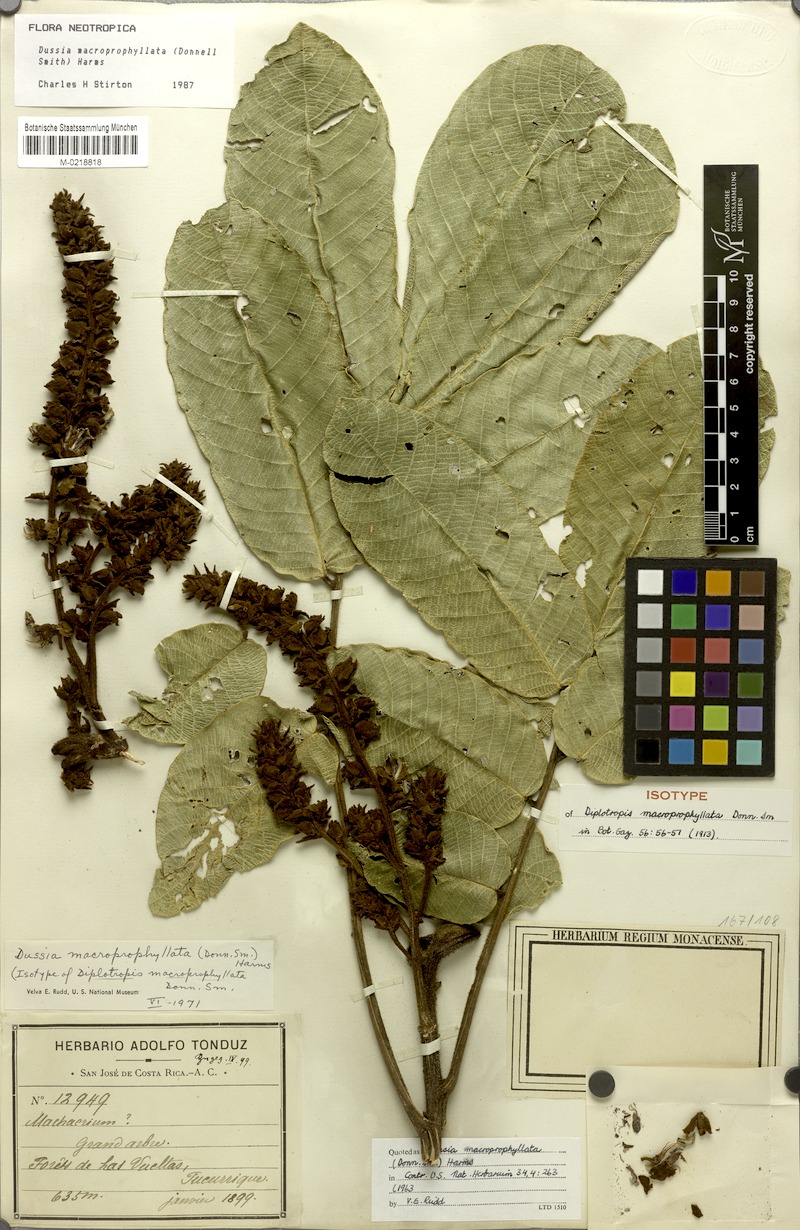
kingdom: Plantae
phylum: Tracheophyta
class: Magnoliopsida
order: Fabales
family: Fabaceae
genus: Dussia
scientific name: Dussia macroprophyllata
